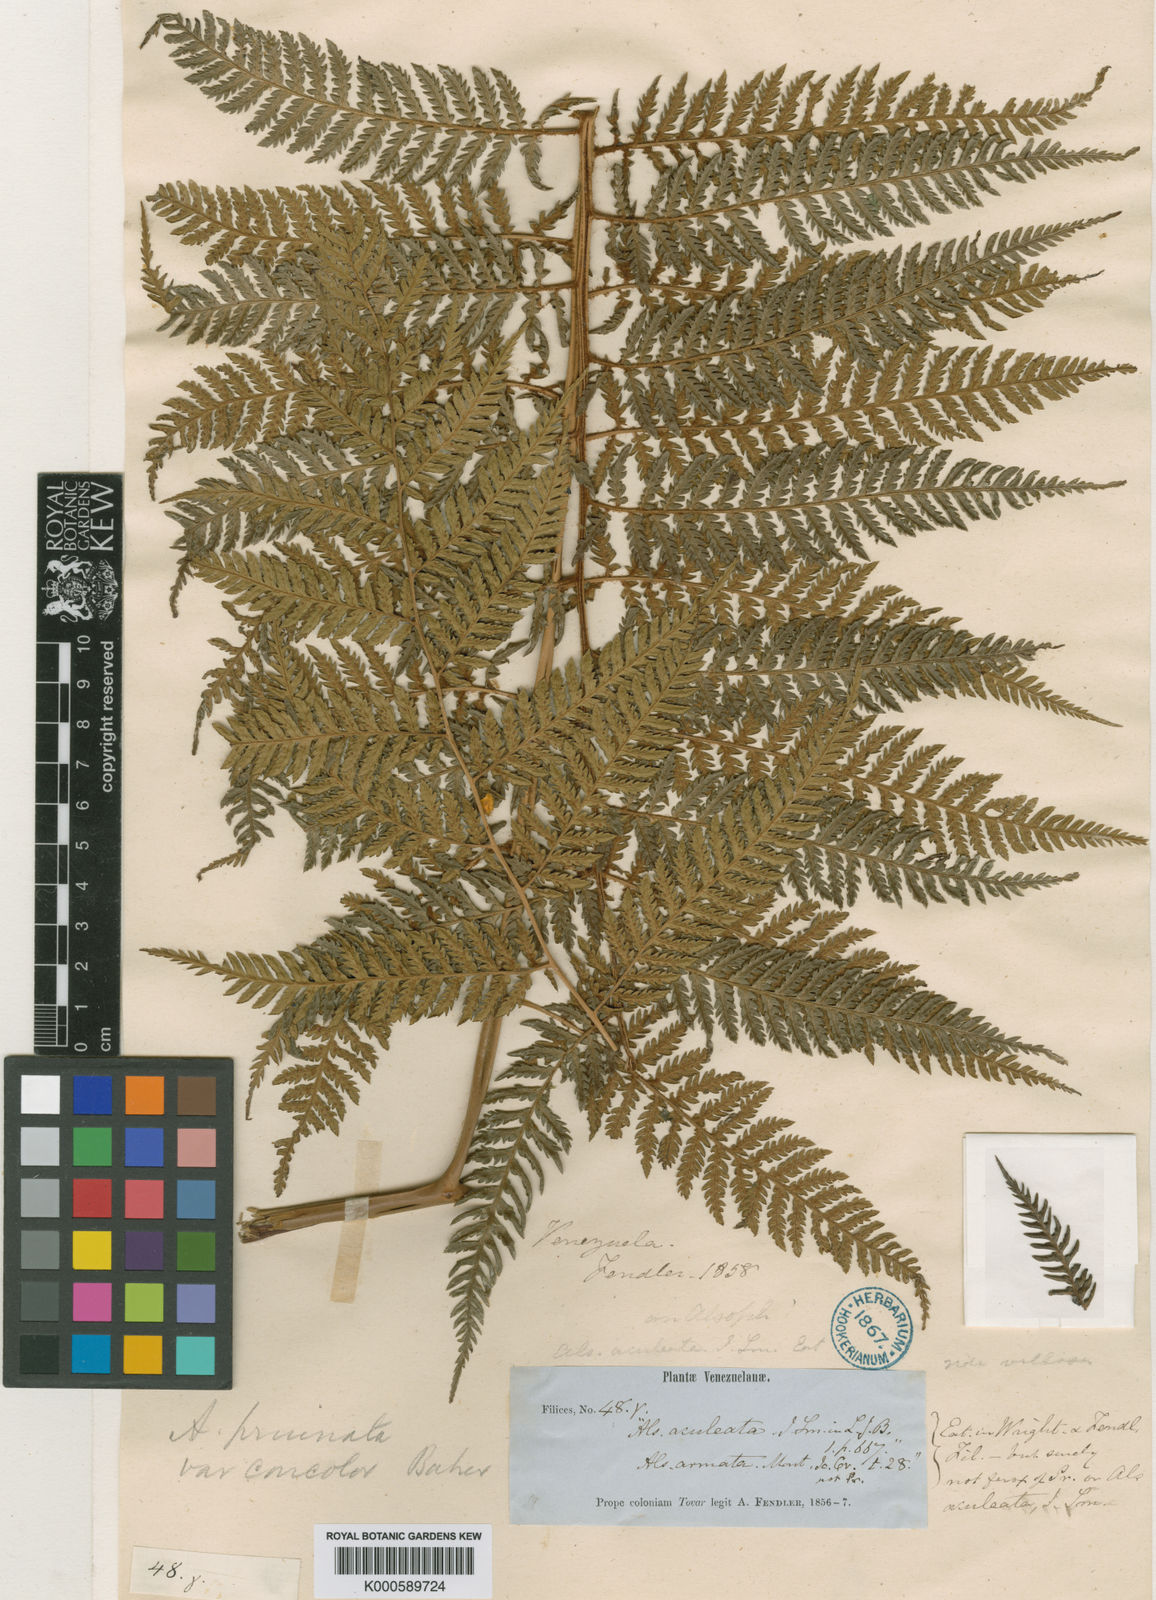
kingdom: Plantae
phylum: Tracheophyta
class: Polypodiopsida
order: Cyatheales
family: Dicksoniaceae
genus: Lophosoria
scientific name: Lophosoria quadripinnata
